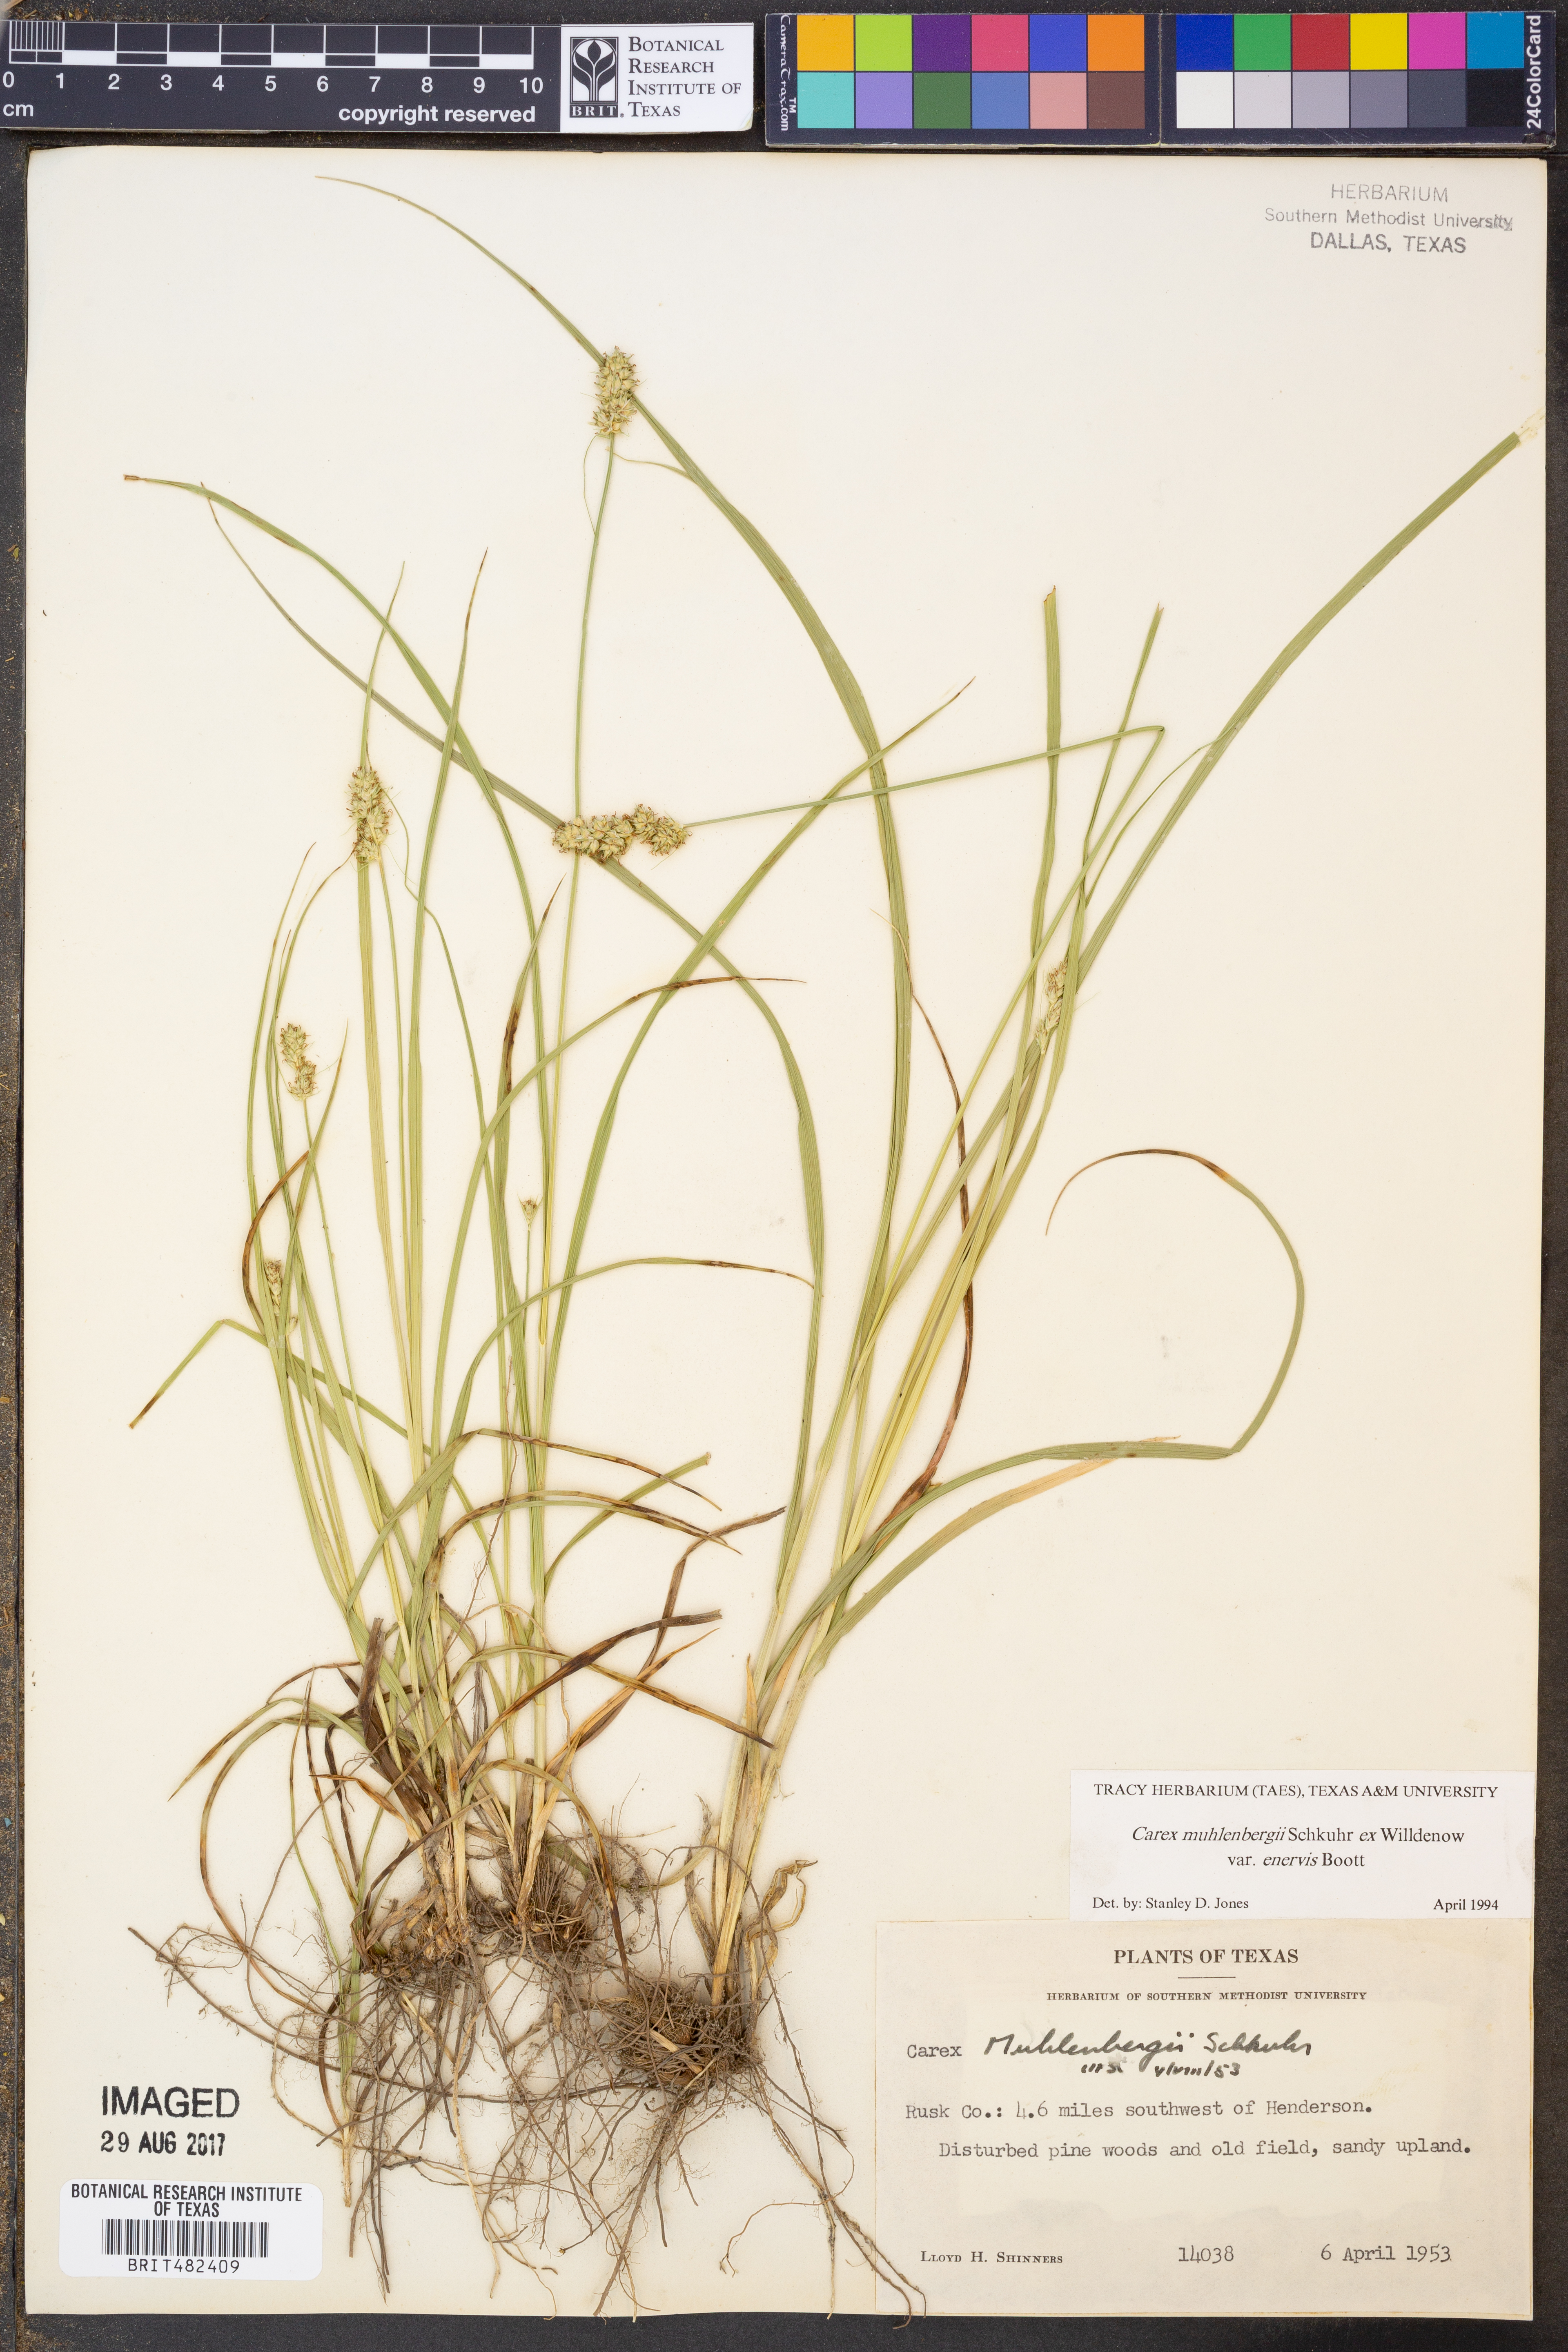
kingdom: Plantae
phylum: Tracheophyta
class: Liliopsida
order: Poales
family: Cyperaceae
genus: Carex
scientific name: Carex vulpinoidea
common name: American fox-sedge
